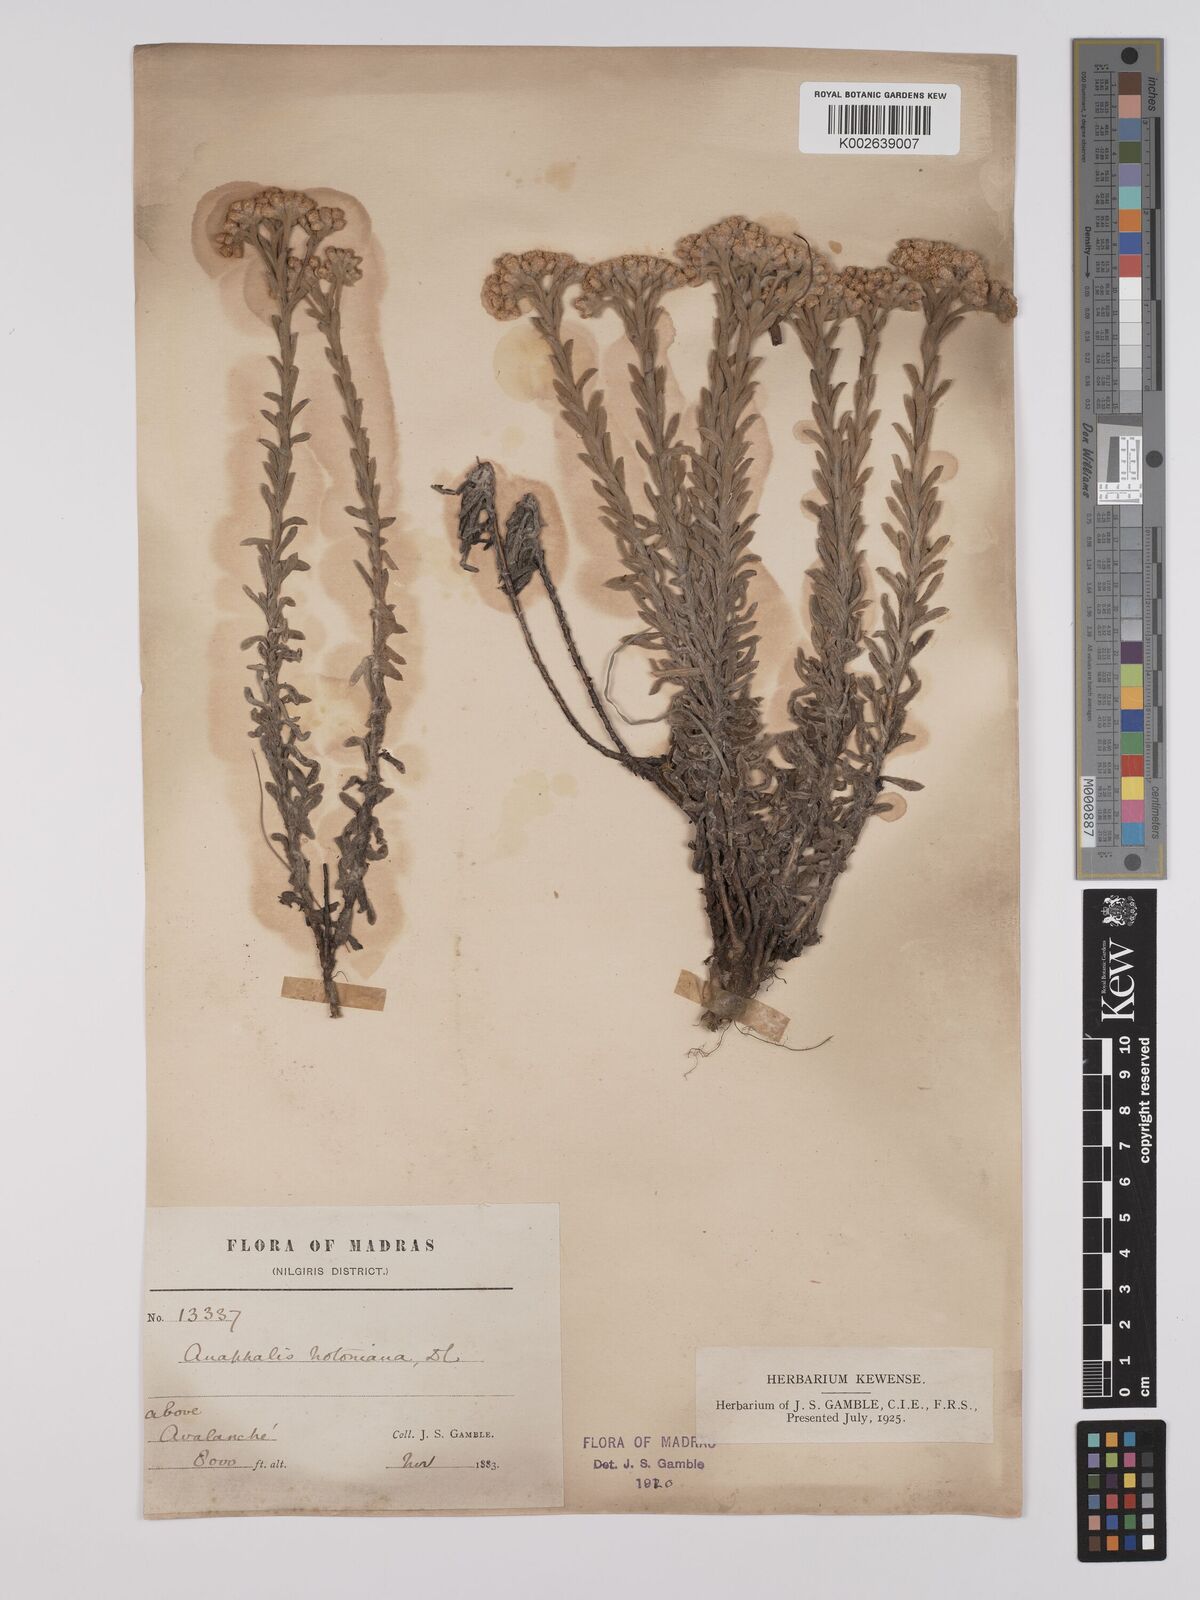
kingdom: Plantae
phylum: Tracheophyta
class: Magnoliopsida
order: Asterales
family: Asteraceae
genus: Anaphalis
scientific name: Anaphalis notoniana
